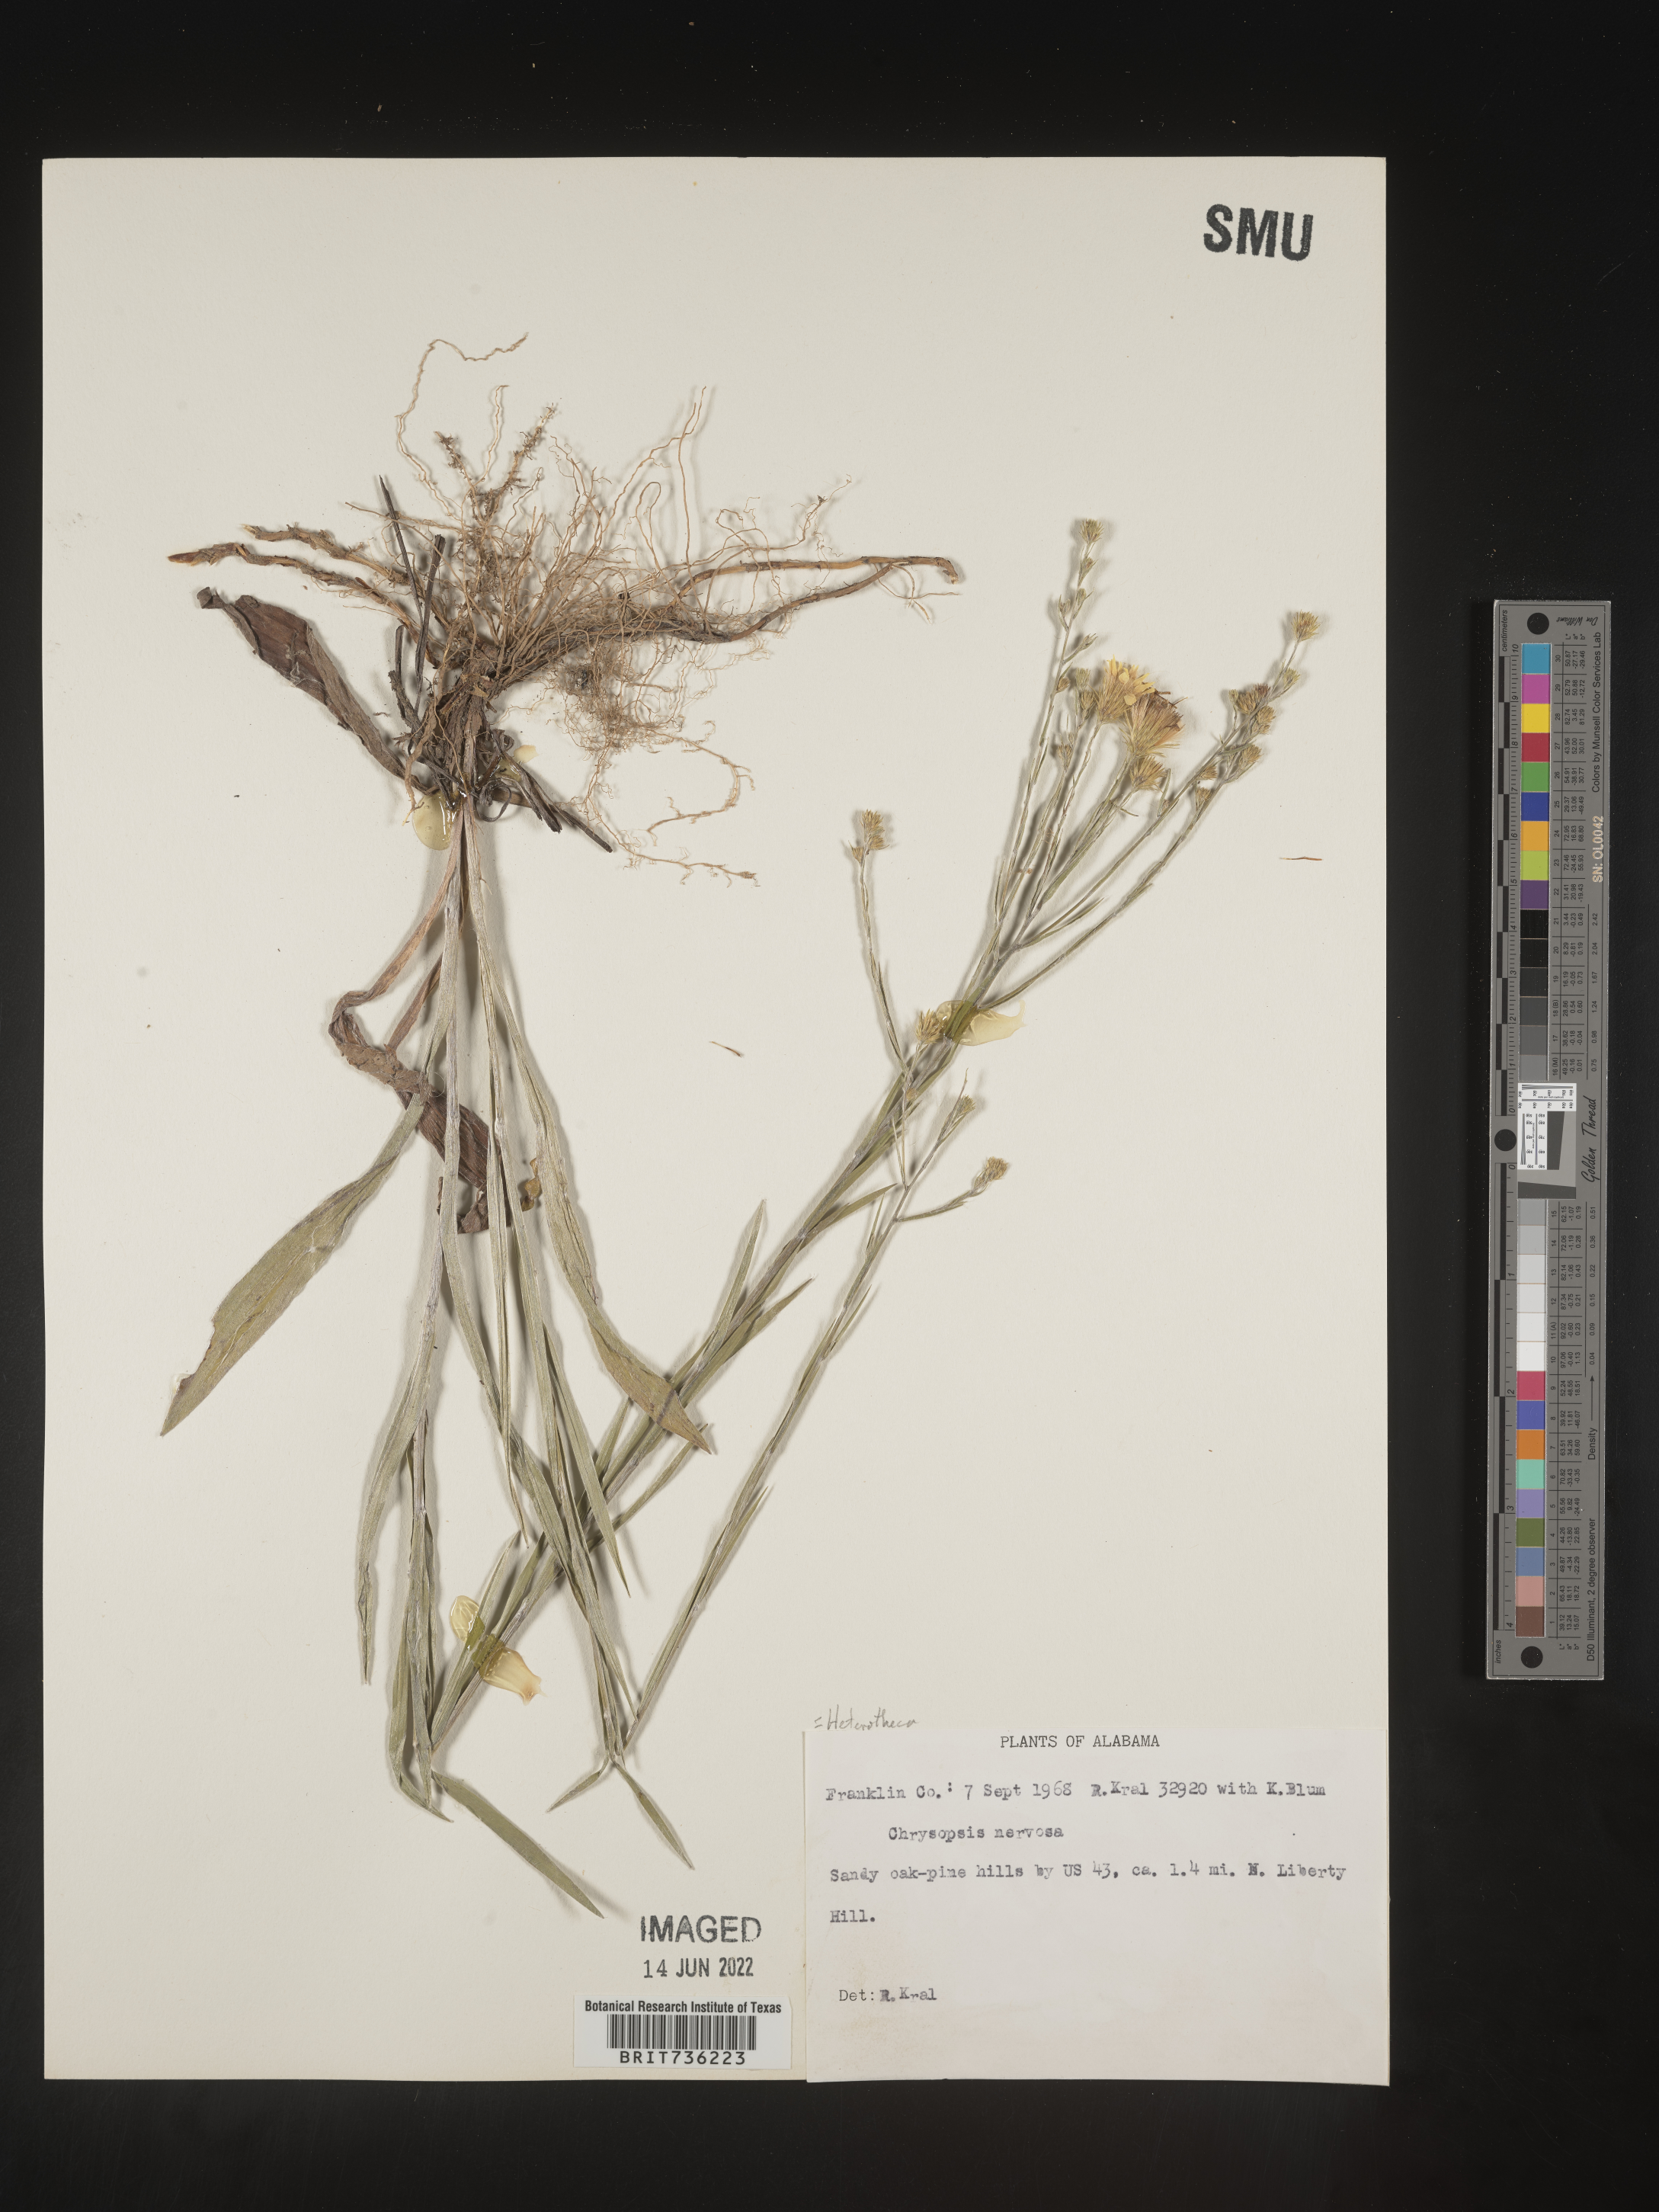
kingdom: Plantae
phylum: Tracheophyta
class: Magnoliopsida
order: Asterales
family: Asteraceae
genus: Pityopsis
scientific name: Pityopsis graminifolia
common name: Grass-leaf golden-aster
